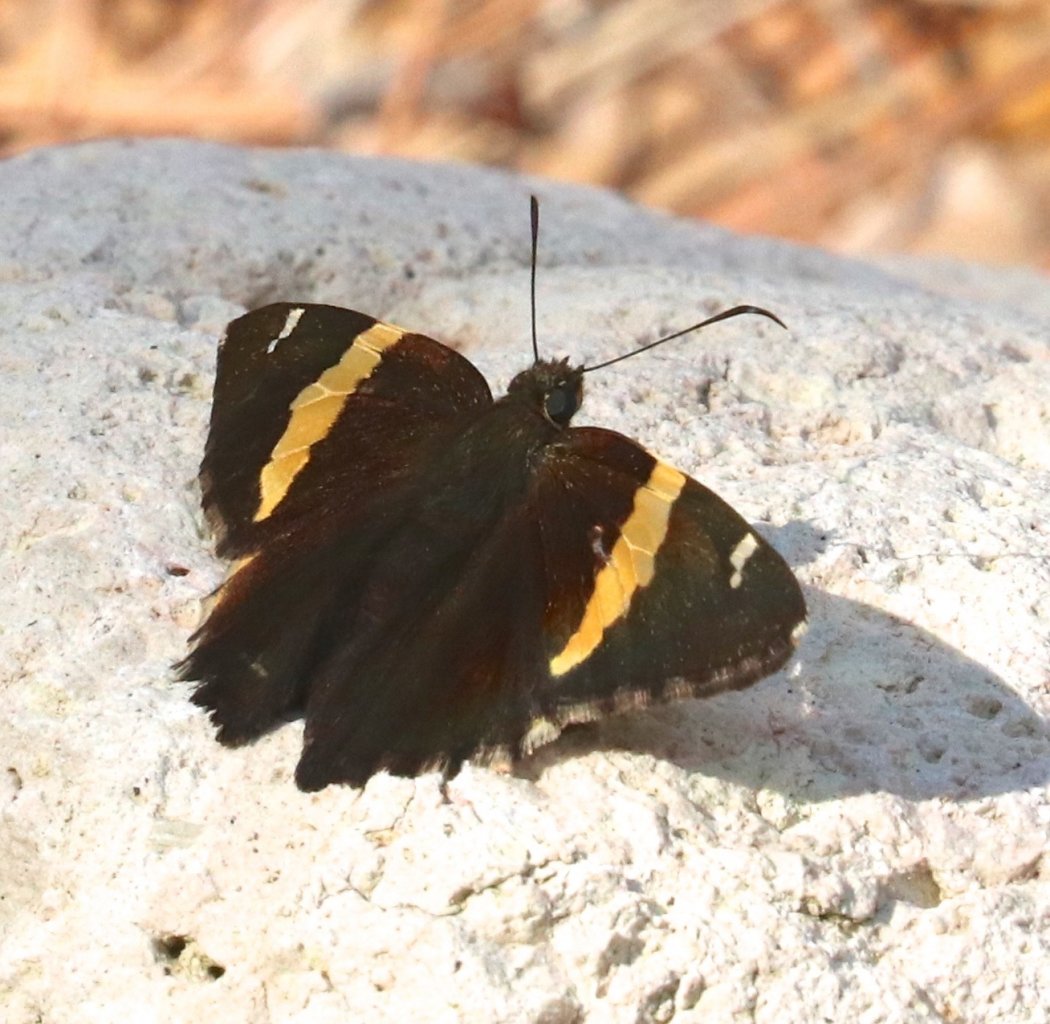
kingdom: Animalia
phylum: Arthropoda
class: Insecta
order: Lepidoptera
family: Hesperiidae
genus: Autochton
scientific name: Autochton cellus
